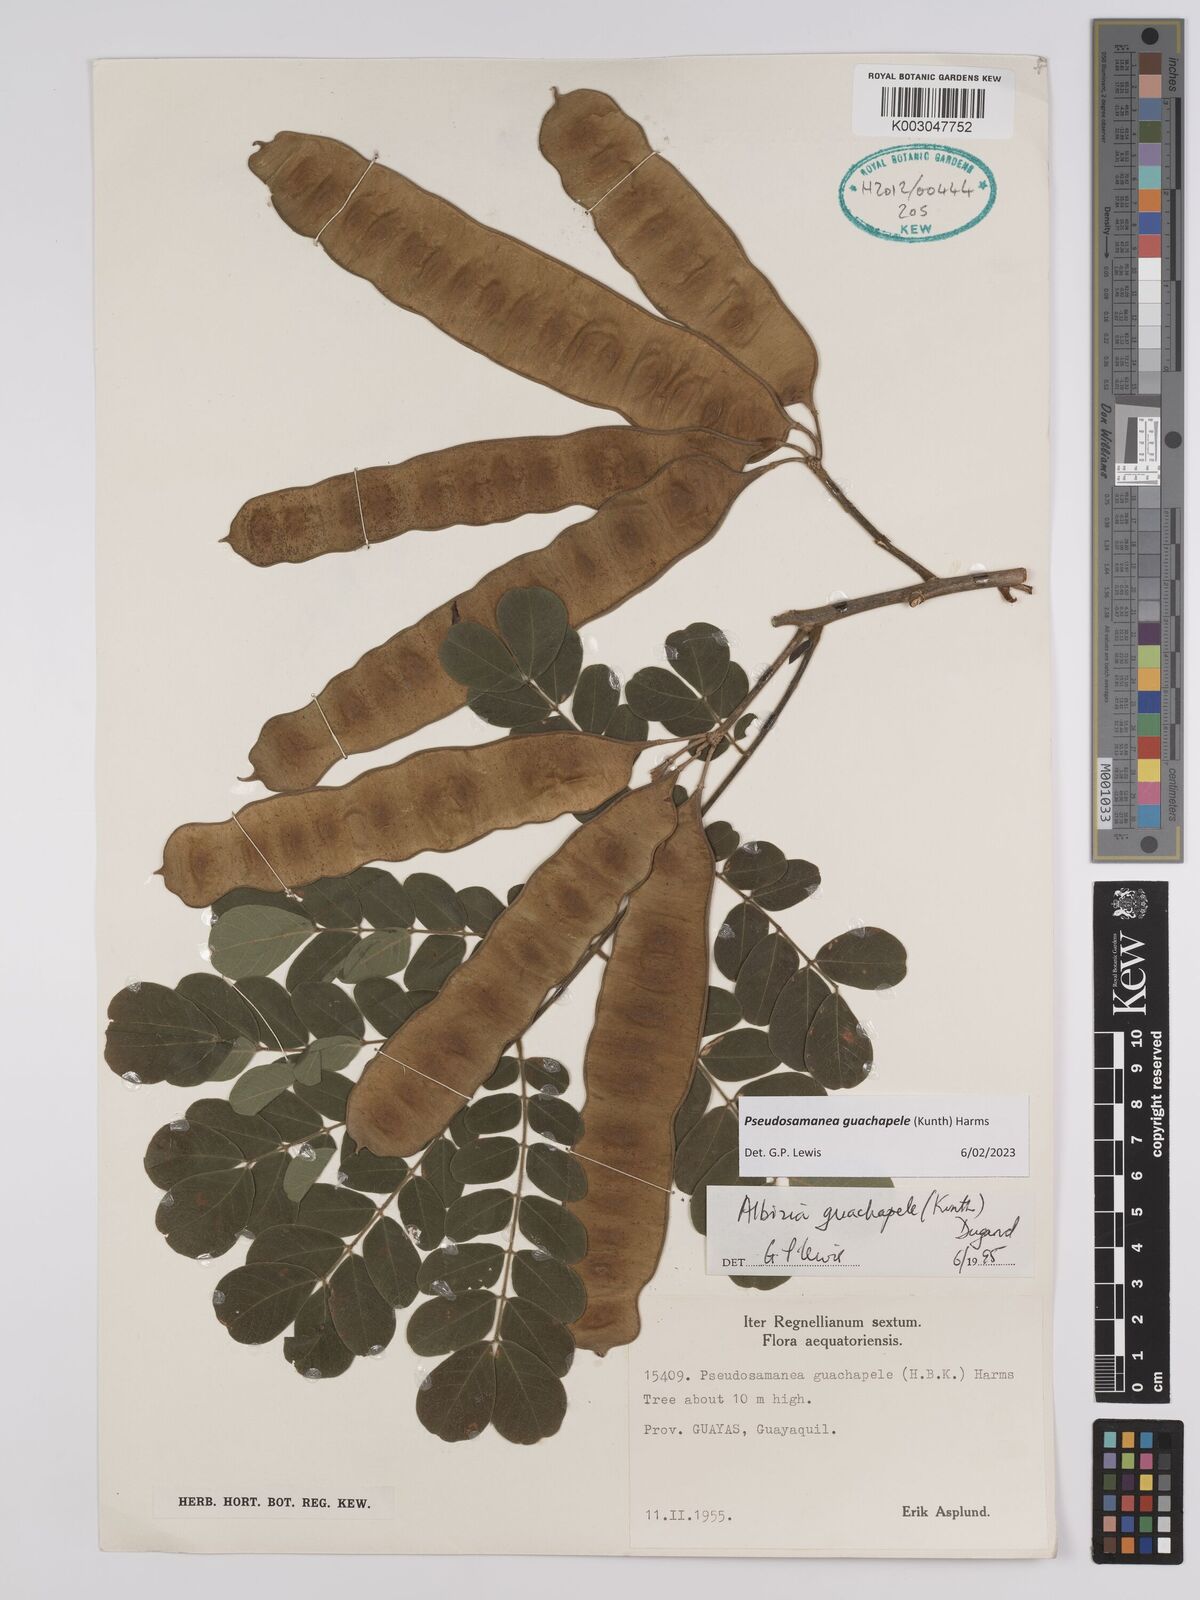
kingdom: Plantae
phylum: Tracheophyta
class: Magnoliopsida
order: Fabales
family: Fabaceae
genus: Pseudosamanea
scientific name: Pseudosamanea guachapele
